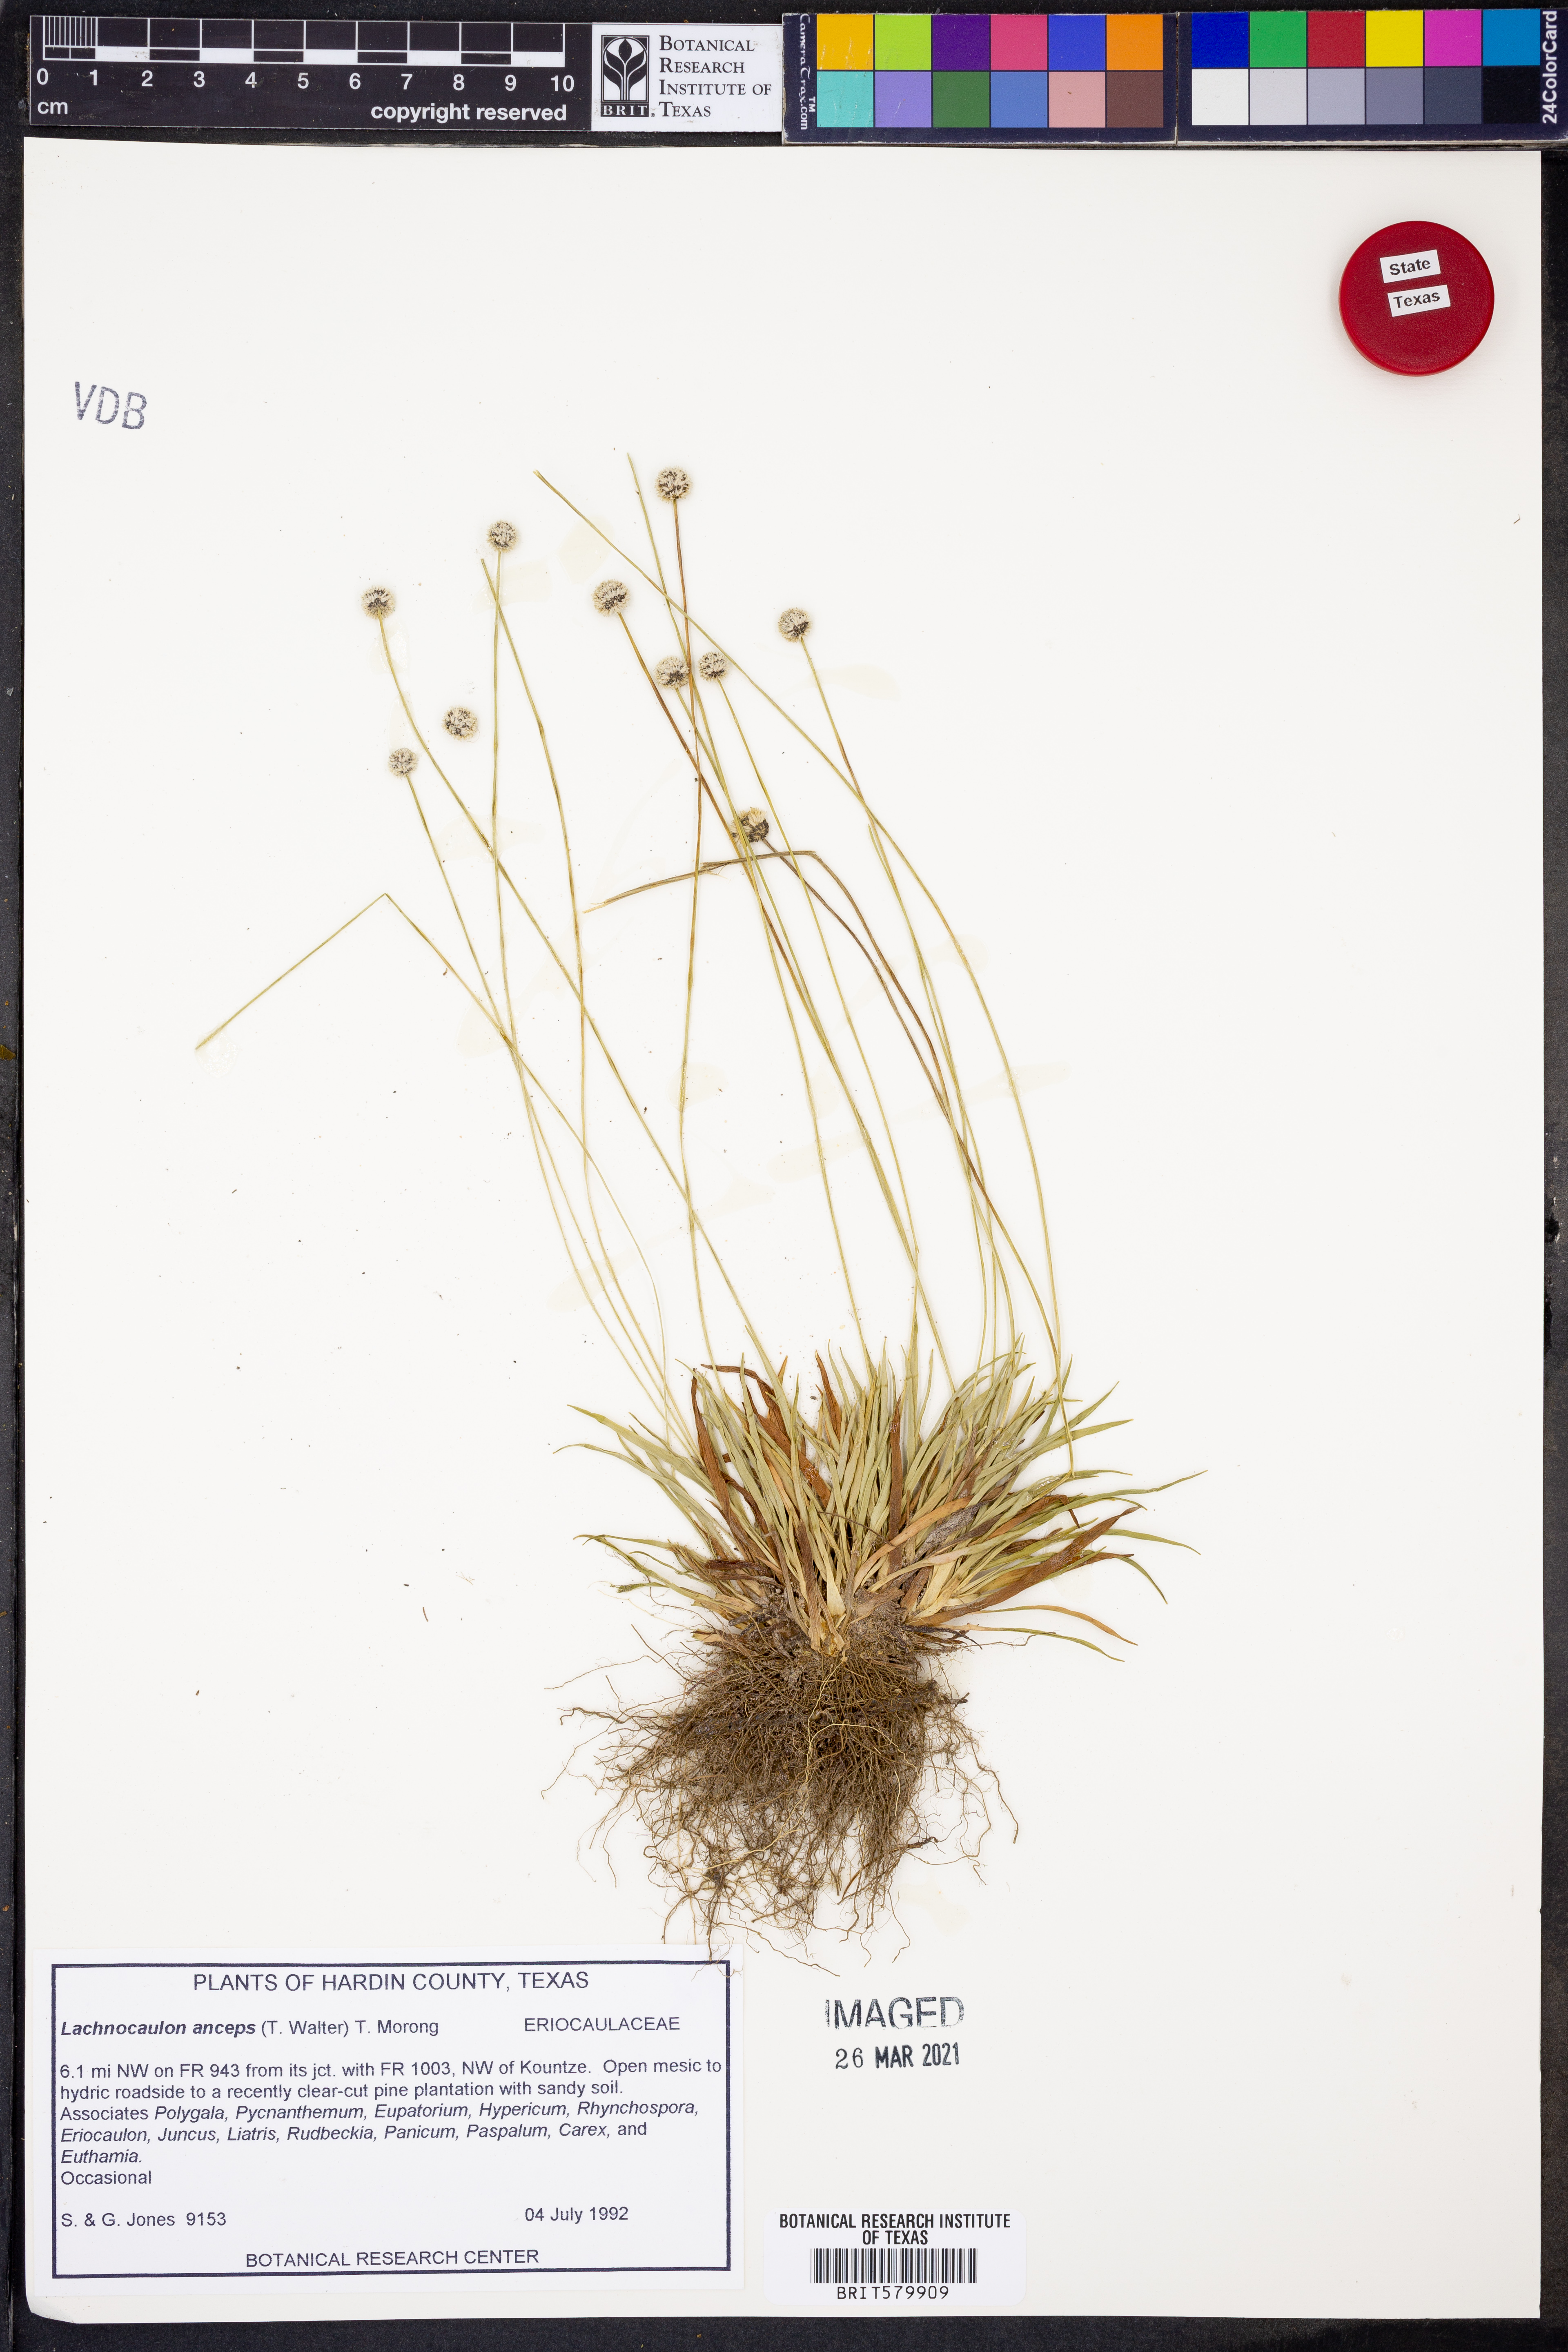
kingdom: Plantae
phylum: Tracheophyta
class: Liliopsida
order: Poales
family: Eriocaulaceae
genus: Paepalanthus
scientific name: Paepalanthus anceps
